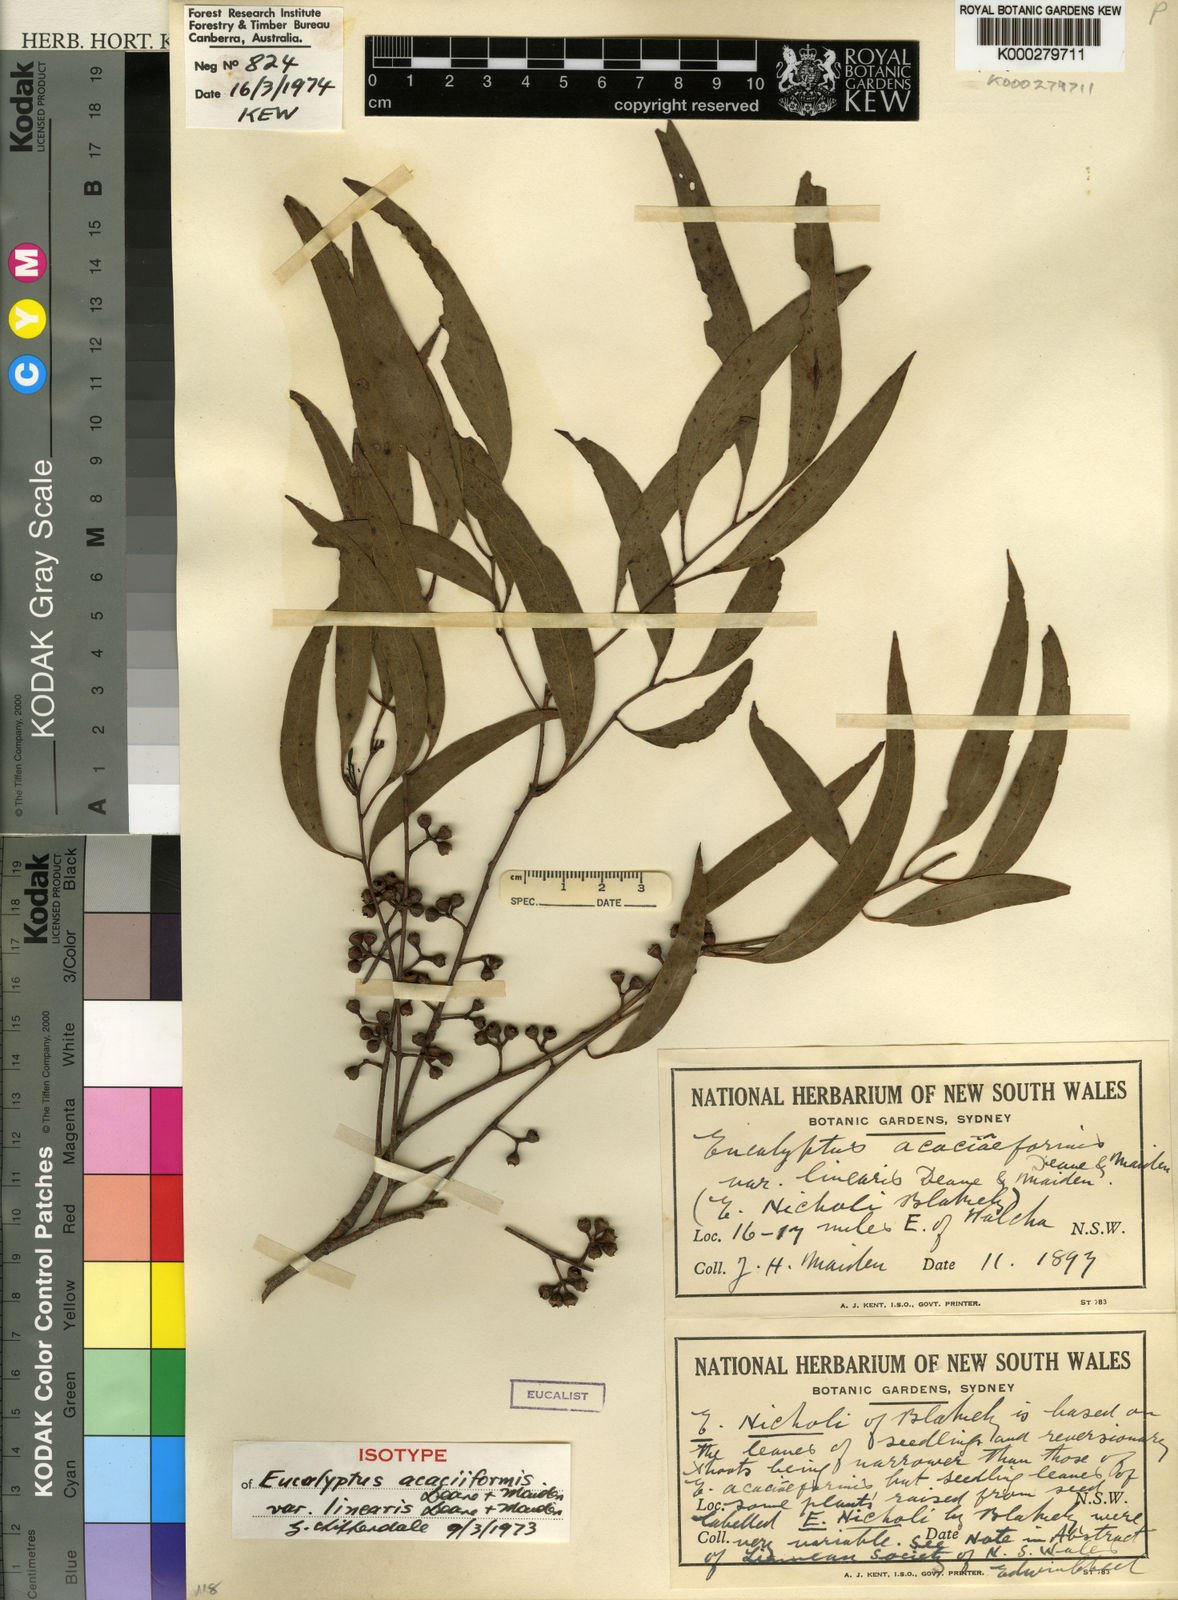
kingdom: Plantae
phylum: Tracheophyta
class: Magnoliopsida
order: Myrtales
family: Myrtaceae
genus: Eucalyptus
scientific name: Eucalyptus nicholii
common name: Narrow-leaved peppermint
